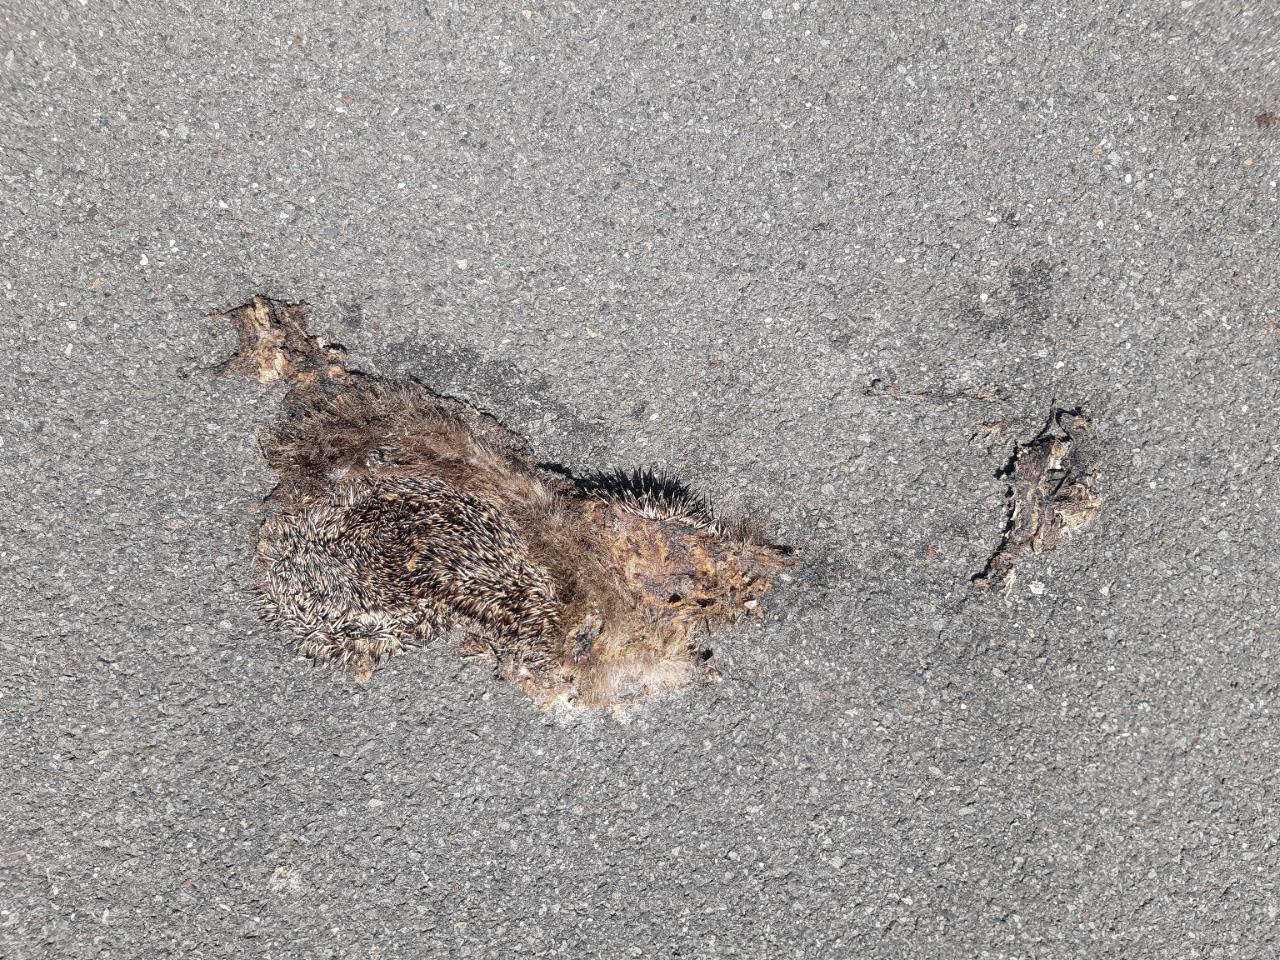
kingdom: Animalia
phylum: Chordata
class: Mammalia
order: Erinaceomorpha
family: Erinaceidae
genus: Erinaceus
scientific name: Erinaceus
